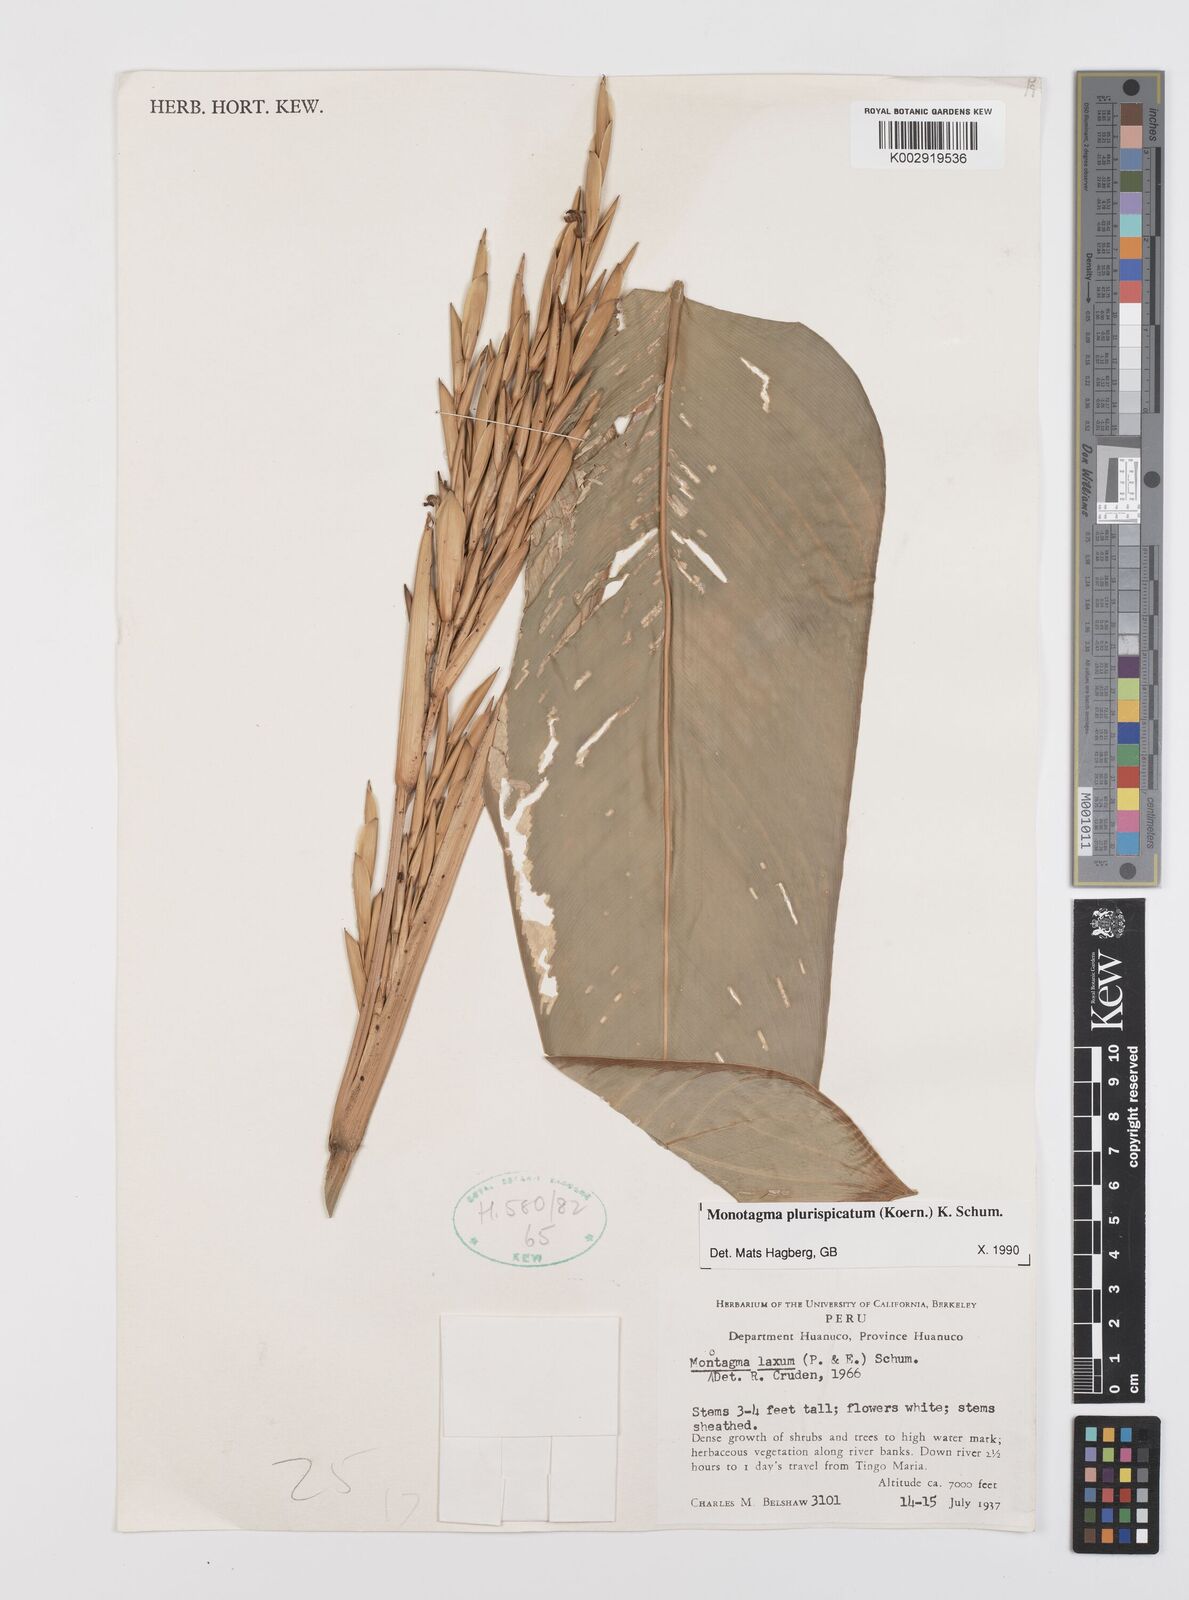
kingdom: Plantae
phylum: Tracheophyta
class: Liliopsida
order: Zingiberales
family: Marantaceae
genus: Monotagma
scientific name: Monotagma plurispicatum
